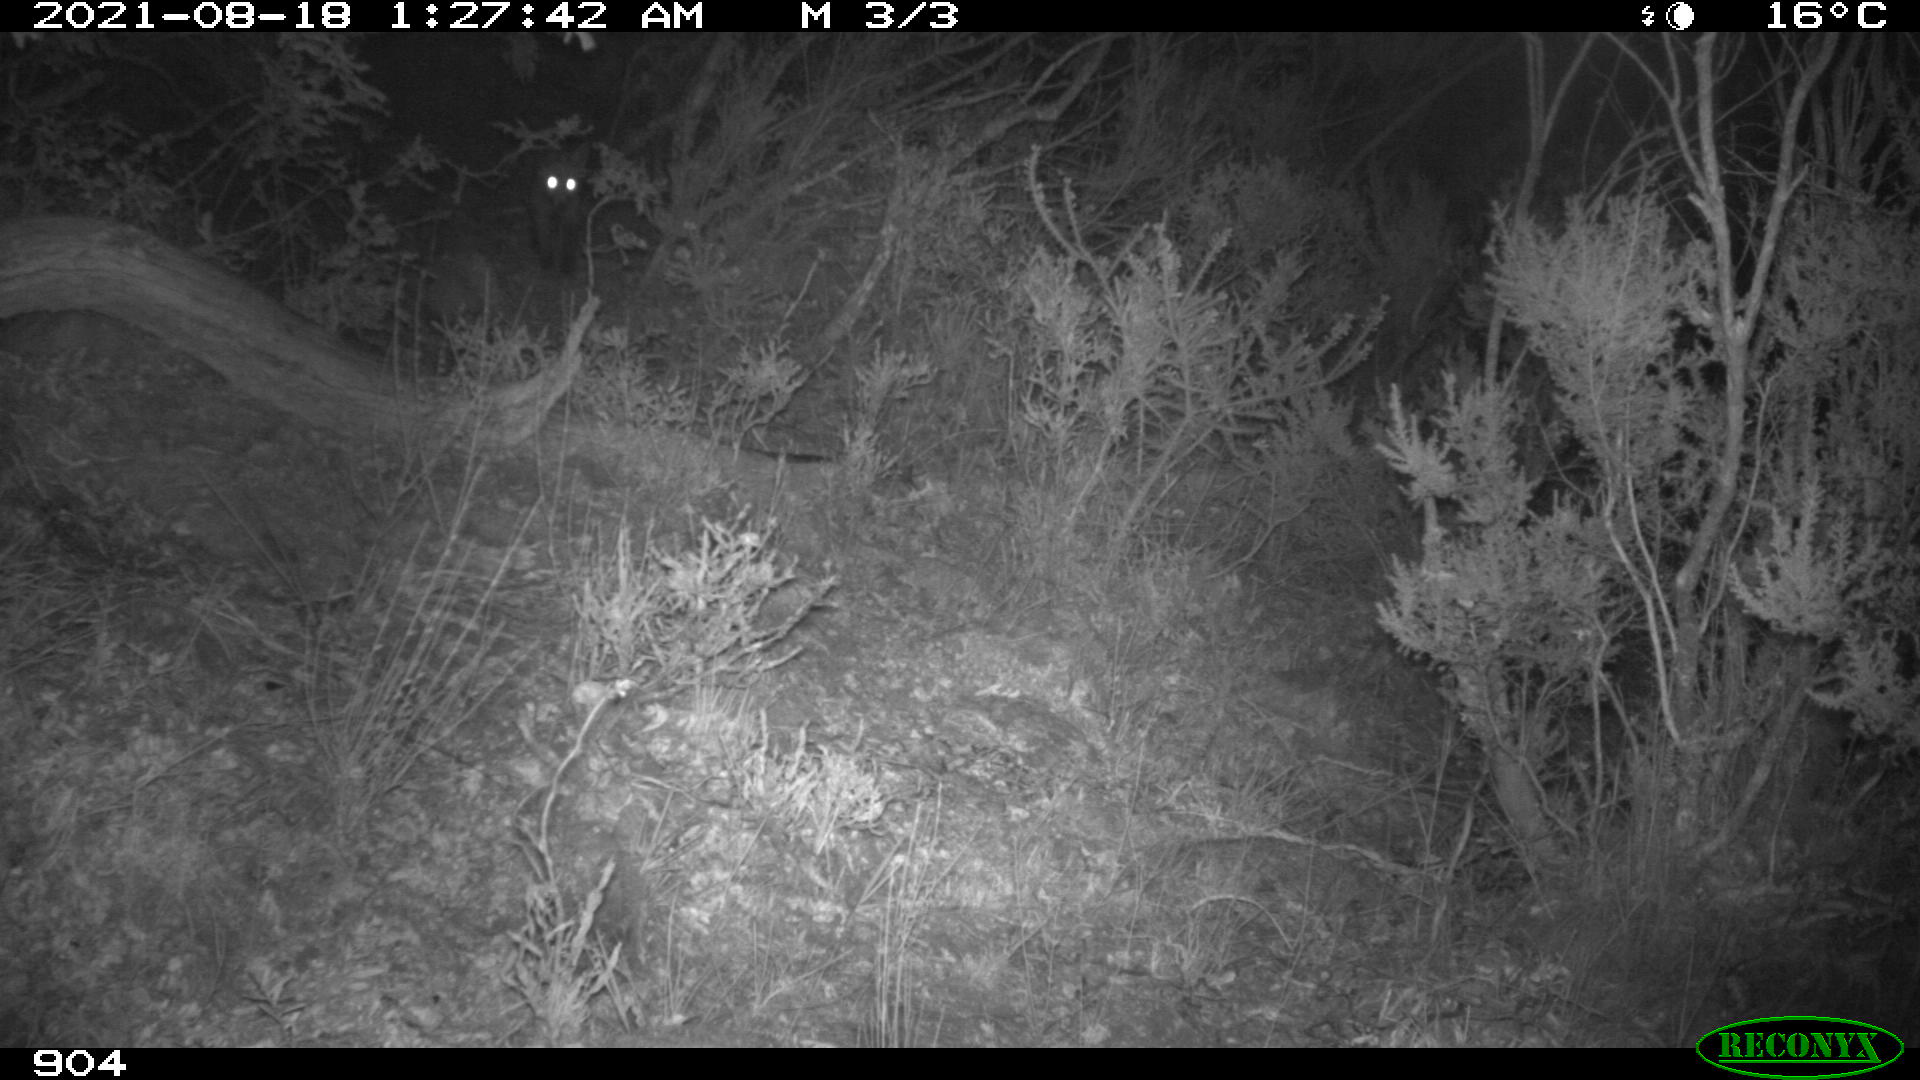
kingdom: Animalia
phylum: Chordata
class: Mammalia
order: Carnivora
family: Canidae
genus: Vulpes
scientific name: Vulpes vulpes
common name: Red fox
